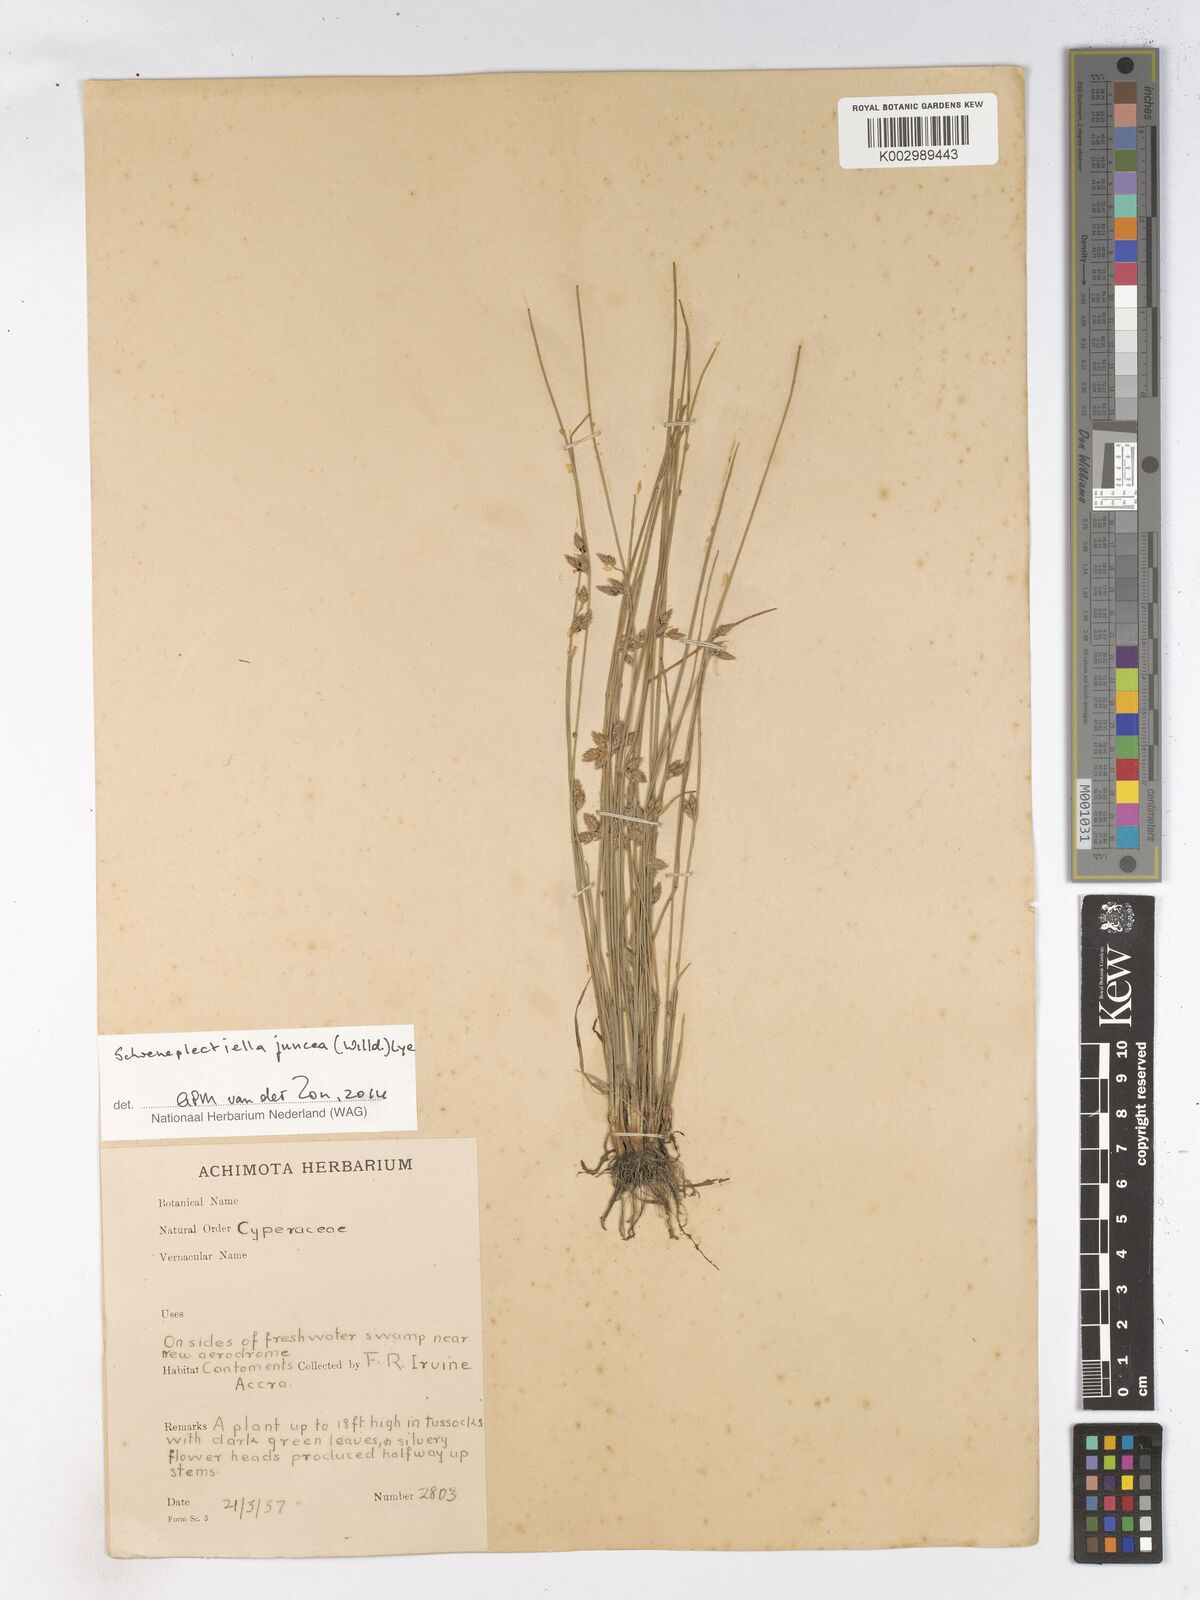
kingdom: Plantae
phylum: Tracheophyta
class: Liliopsida
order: Poales
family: Cyperaceae
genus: Schoenoplectiella
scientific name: Schoenoplectiella juncea
